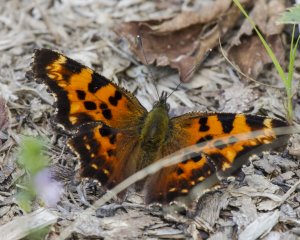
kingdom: Animalia
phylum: Arthropoda
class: Insecta
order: Lepidoptera
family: Nymphalidae
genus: Polygonia
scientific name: Polygonia faunus
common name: Green Comma
